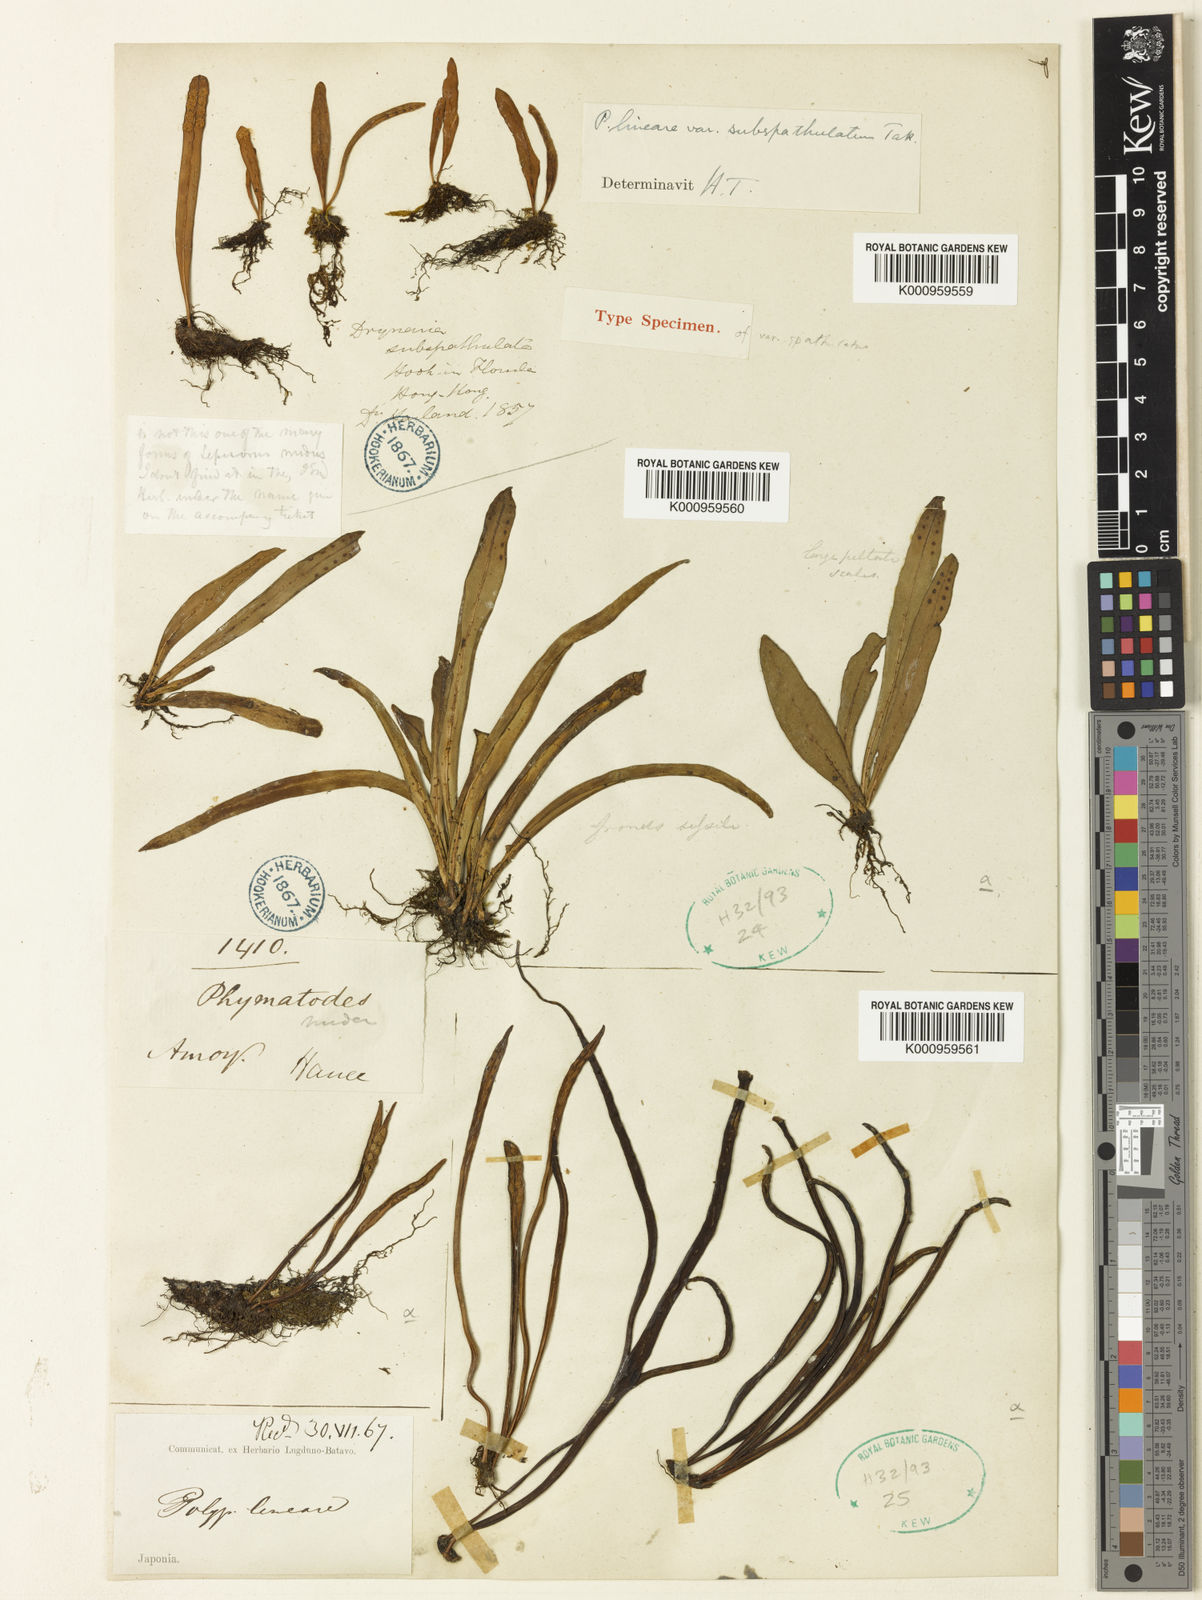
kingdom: Plantae
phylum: Tracheophyta
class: Polypodiopsida
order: Polypodiales
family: Polypodiaceae
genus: Lepisorus
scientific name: Lepisorus thunbergianus
